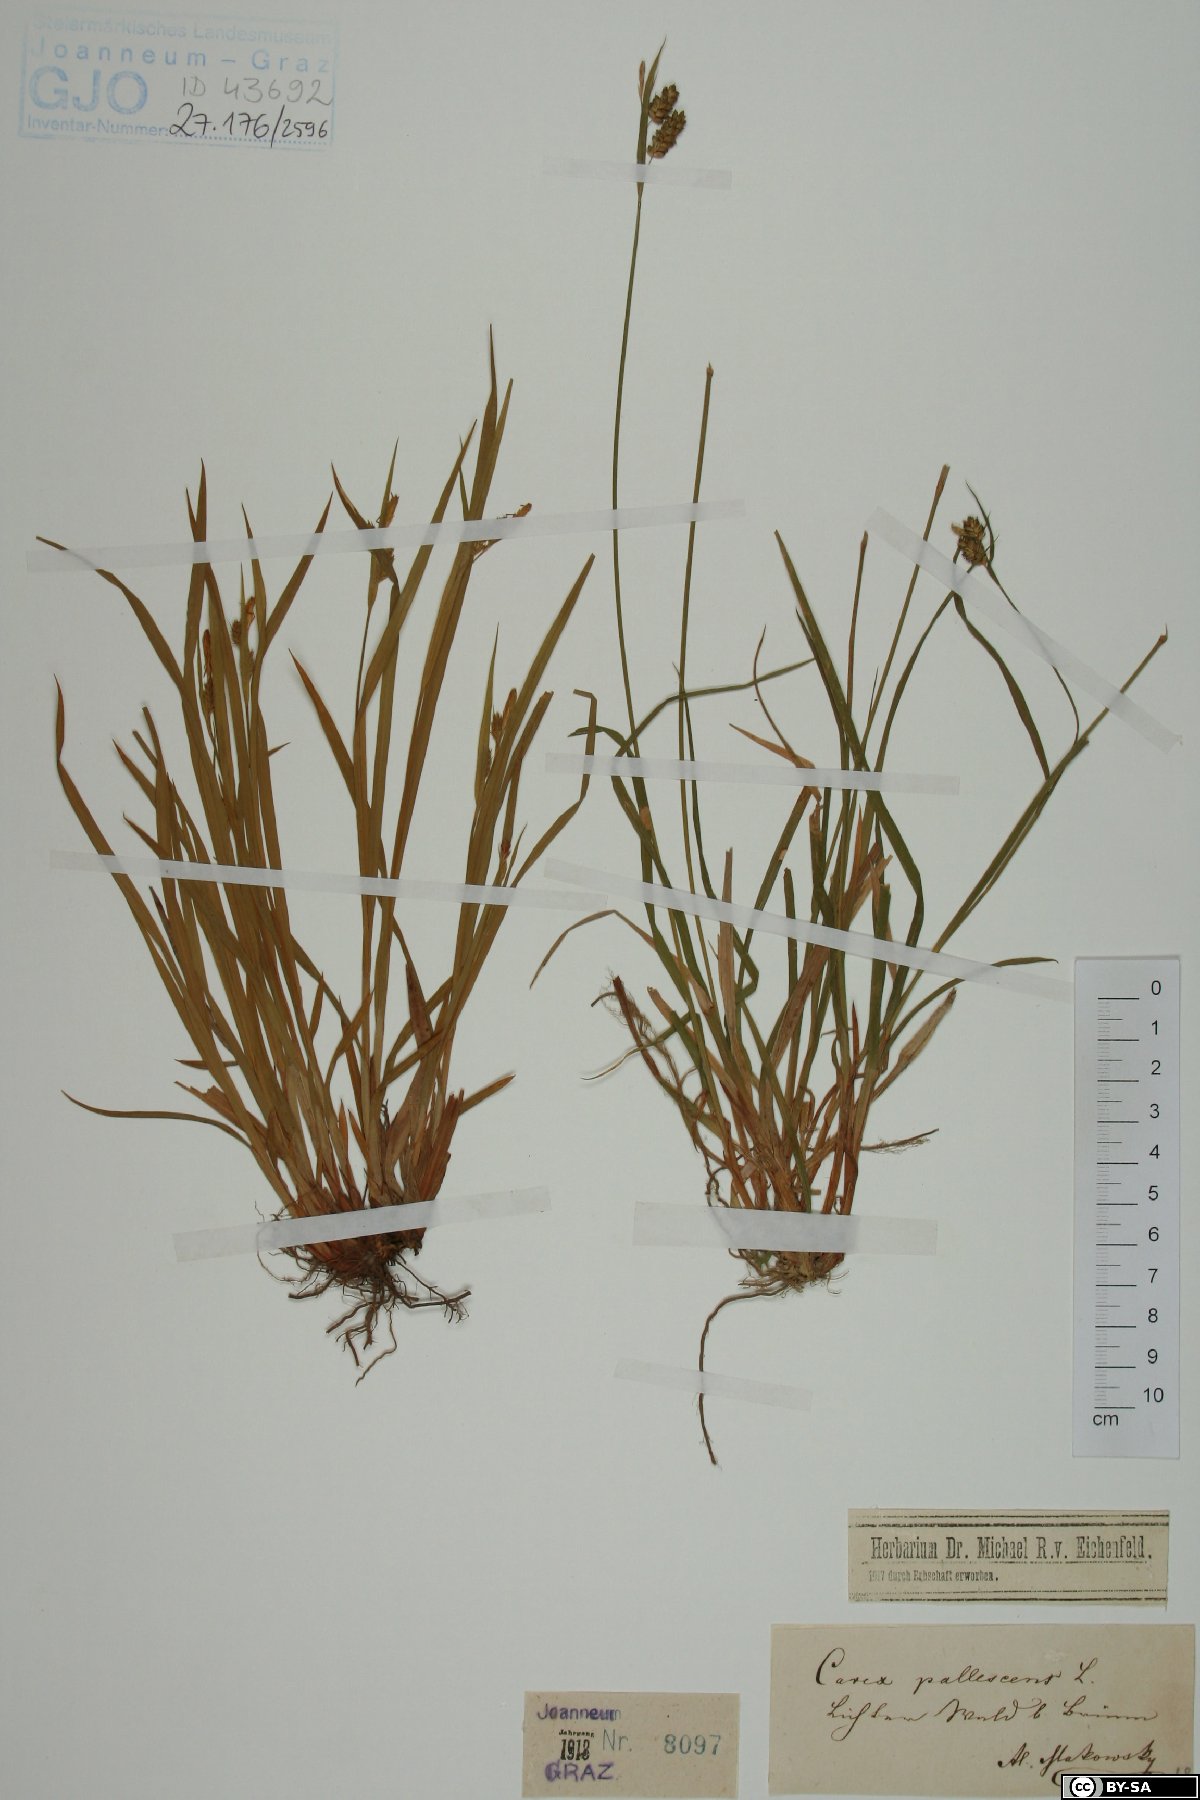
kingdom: Plantae
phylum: Tracheophyta
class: Liliopsida
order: Poales
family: Cyperaceae
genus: Carex
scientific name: Carex pallescens
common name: Pale sedge
